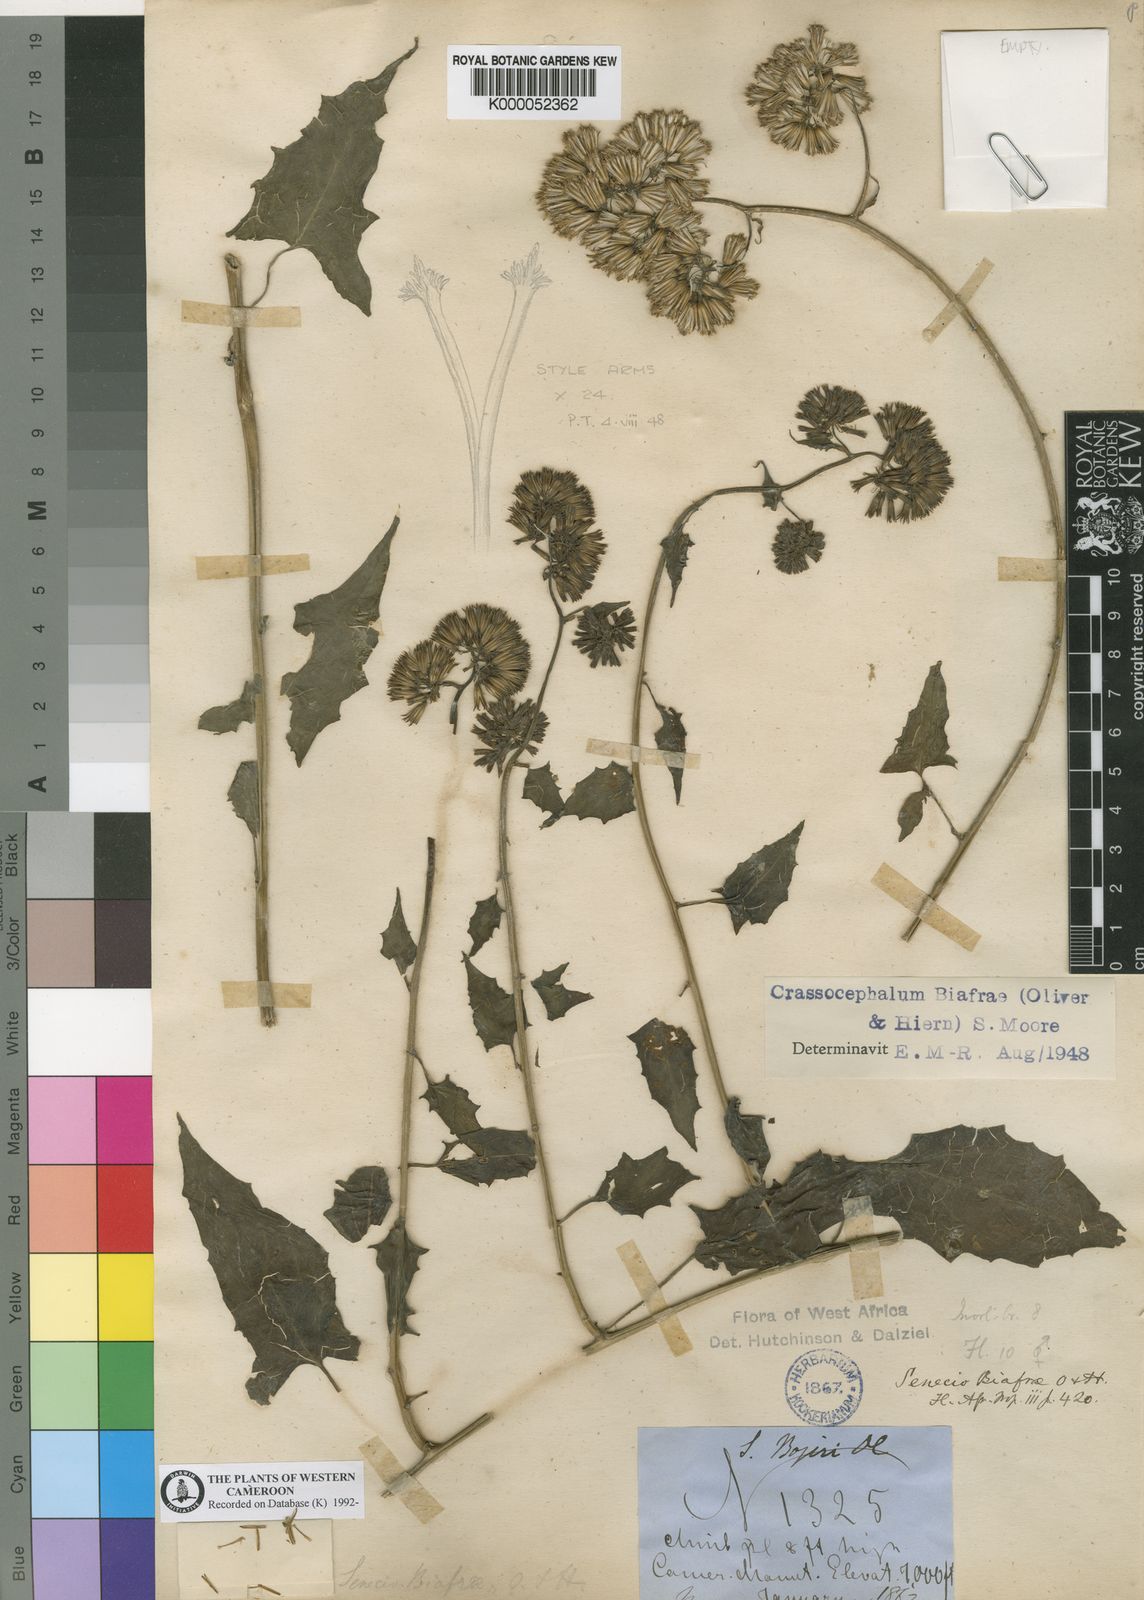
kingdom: Plantae
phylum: Tracheophyta
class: Magnoliopsida
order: Asterales
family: Asteraceae
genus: Solanecio
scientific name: Solanecio biafrae
